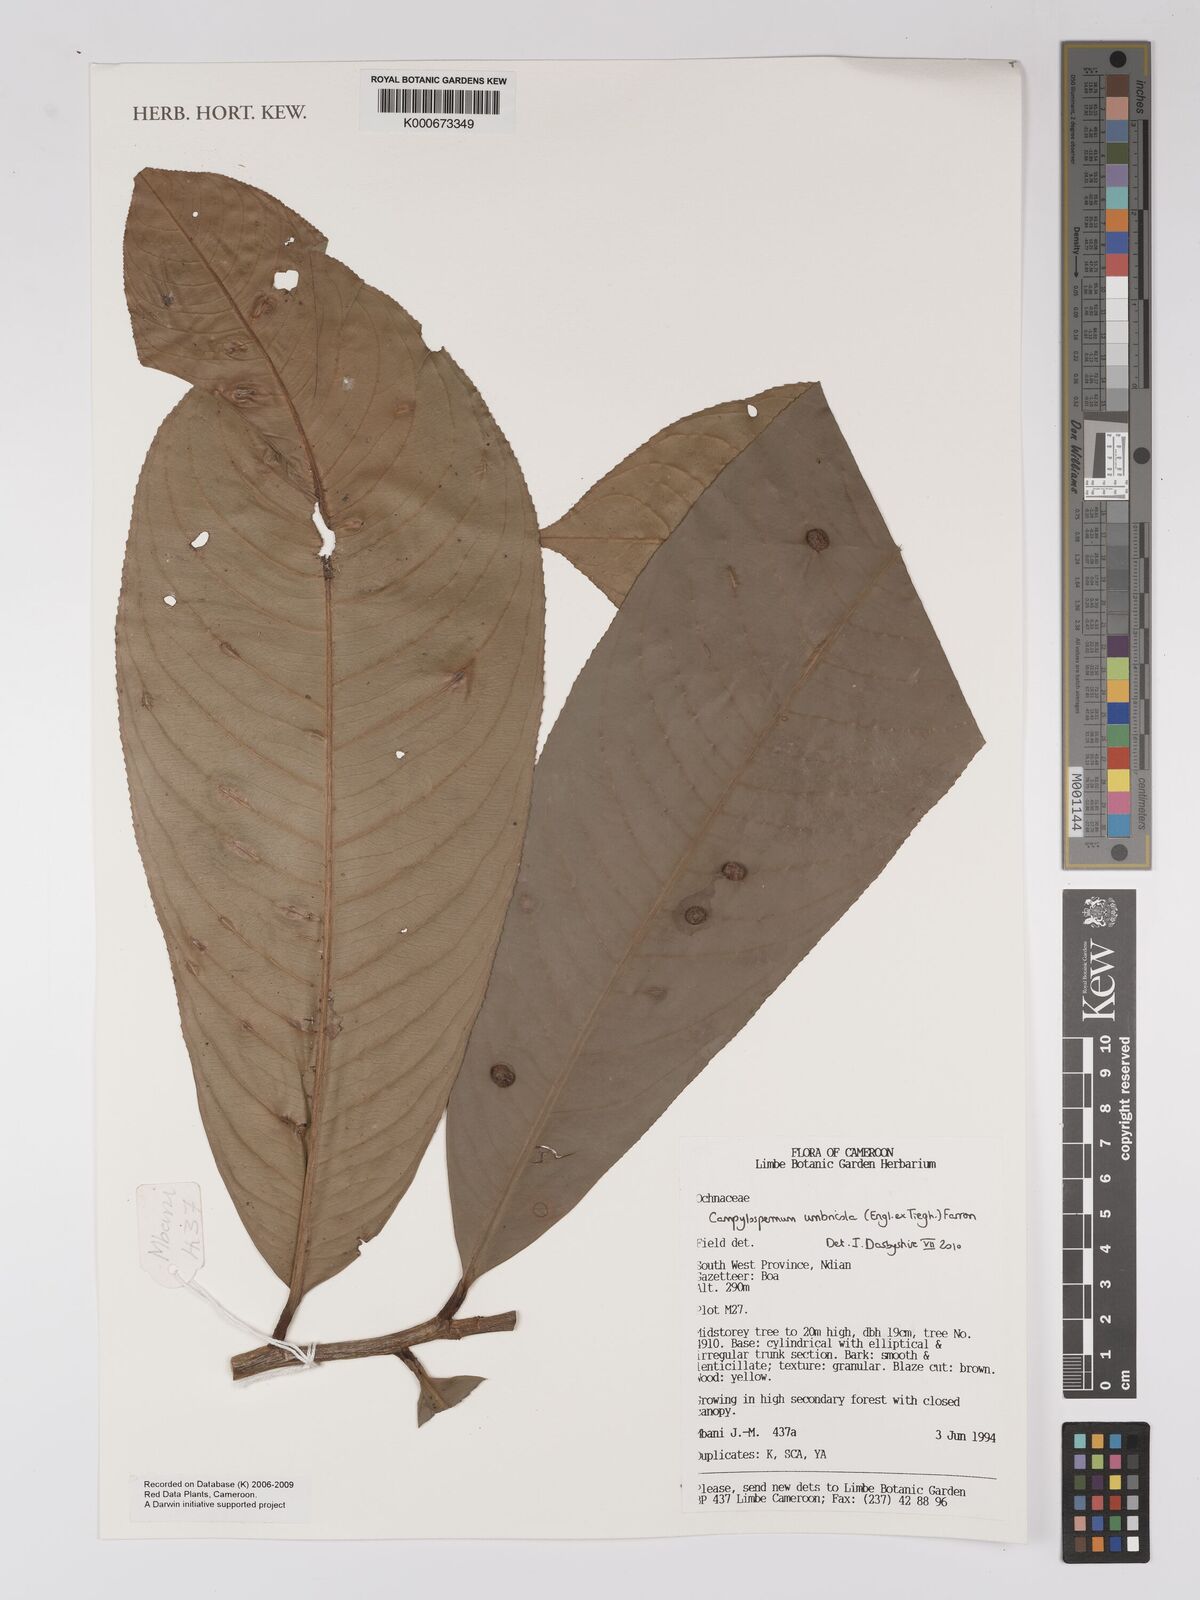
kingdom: Plantae
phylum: Tracheophyta
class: Magnoliopsida
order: Malpighiales
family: Ochnaceae
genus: Campylospermum
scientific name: Campylospermum umbricola
